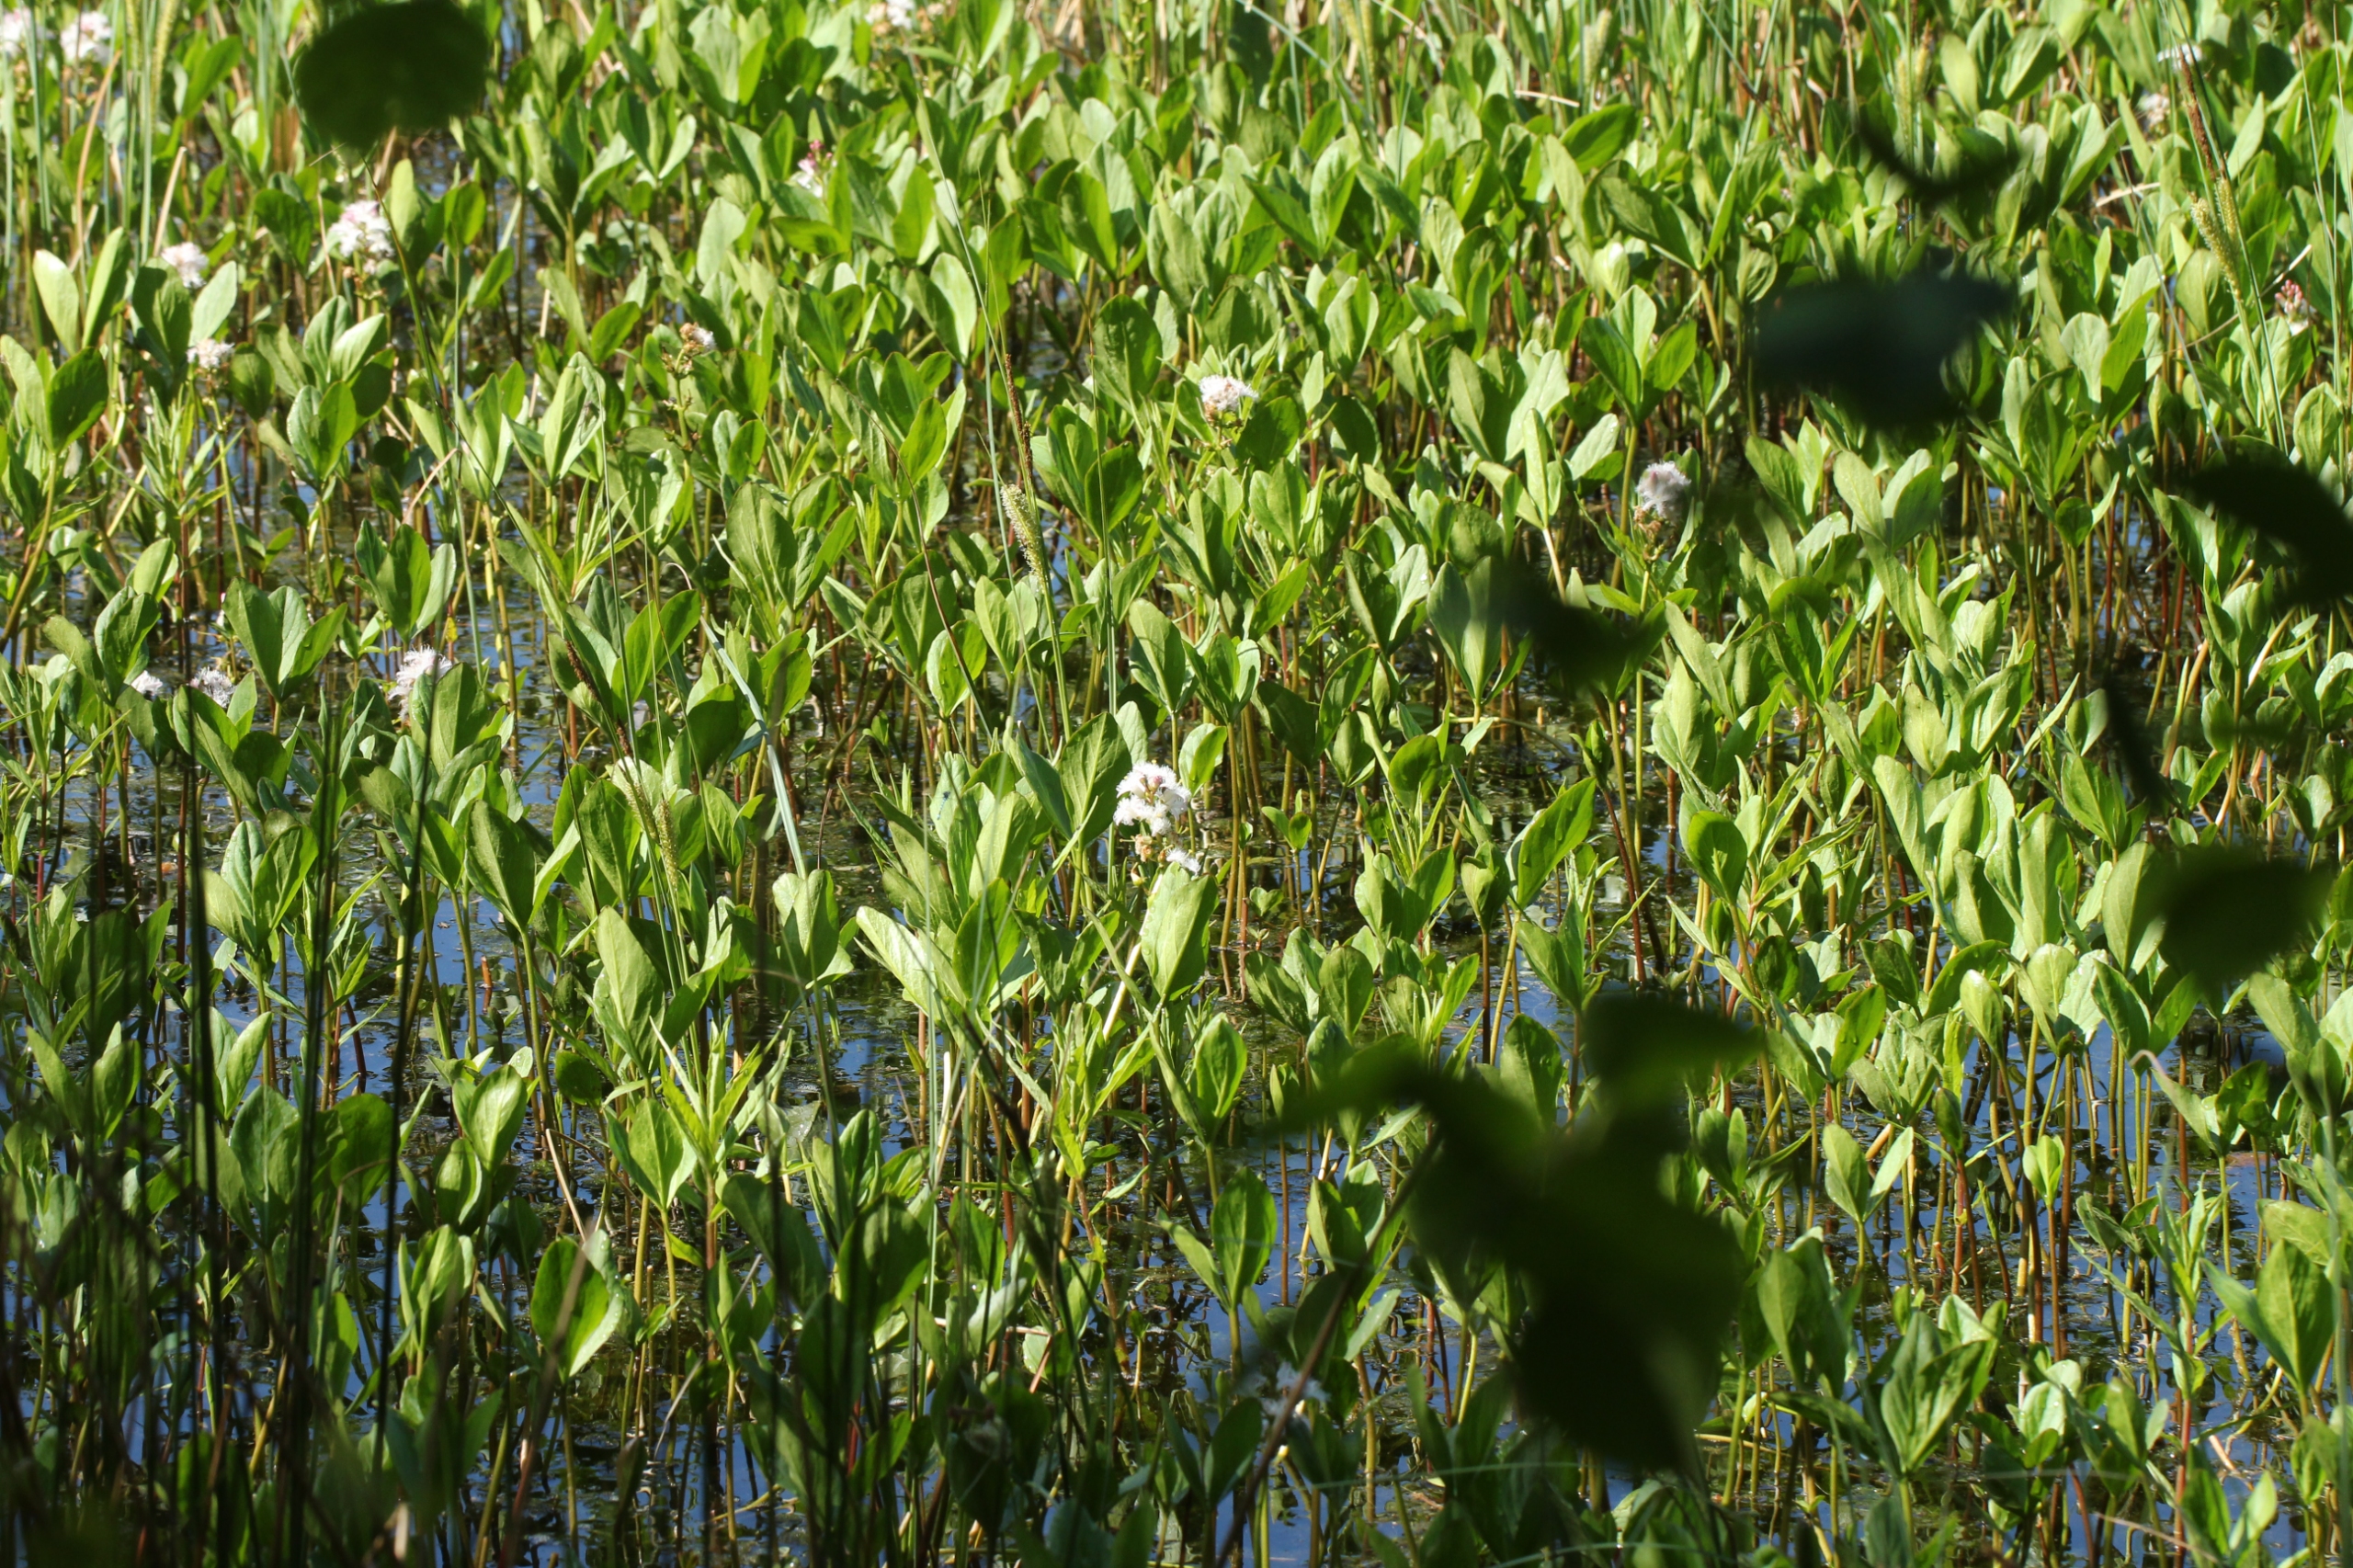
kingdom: Plantae
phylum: Tracheophyta
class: Magnoliopsida
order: Asterales
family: Menyanthaceae
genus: Menyanthes
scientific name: Menyanthes trifoliata
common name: Bukkeblad
